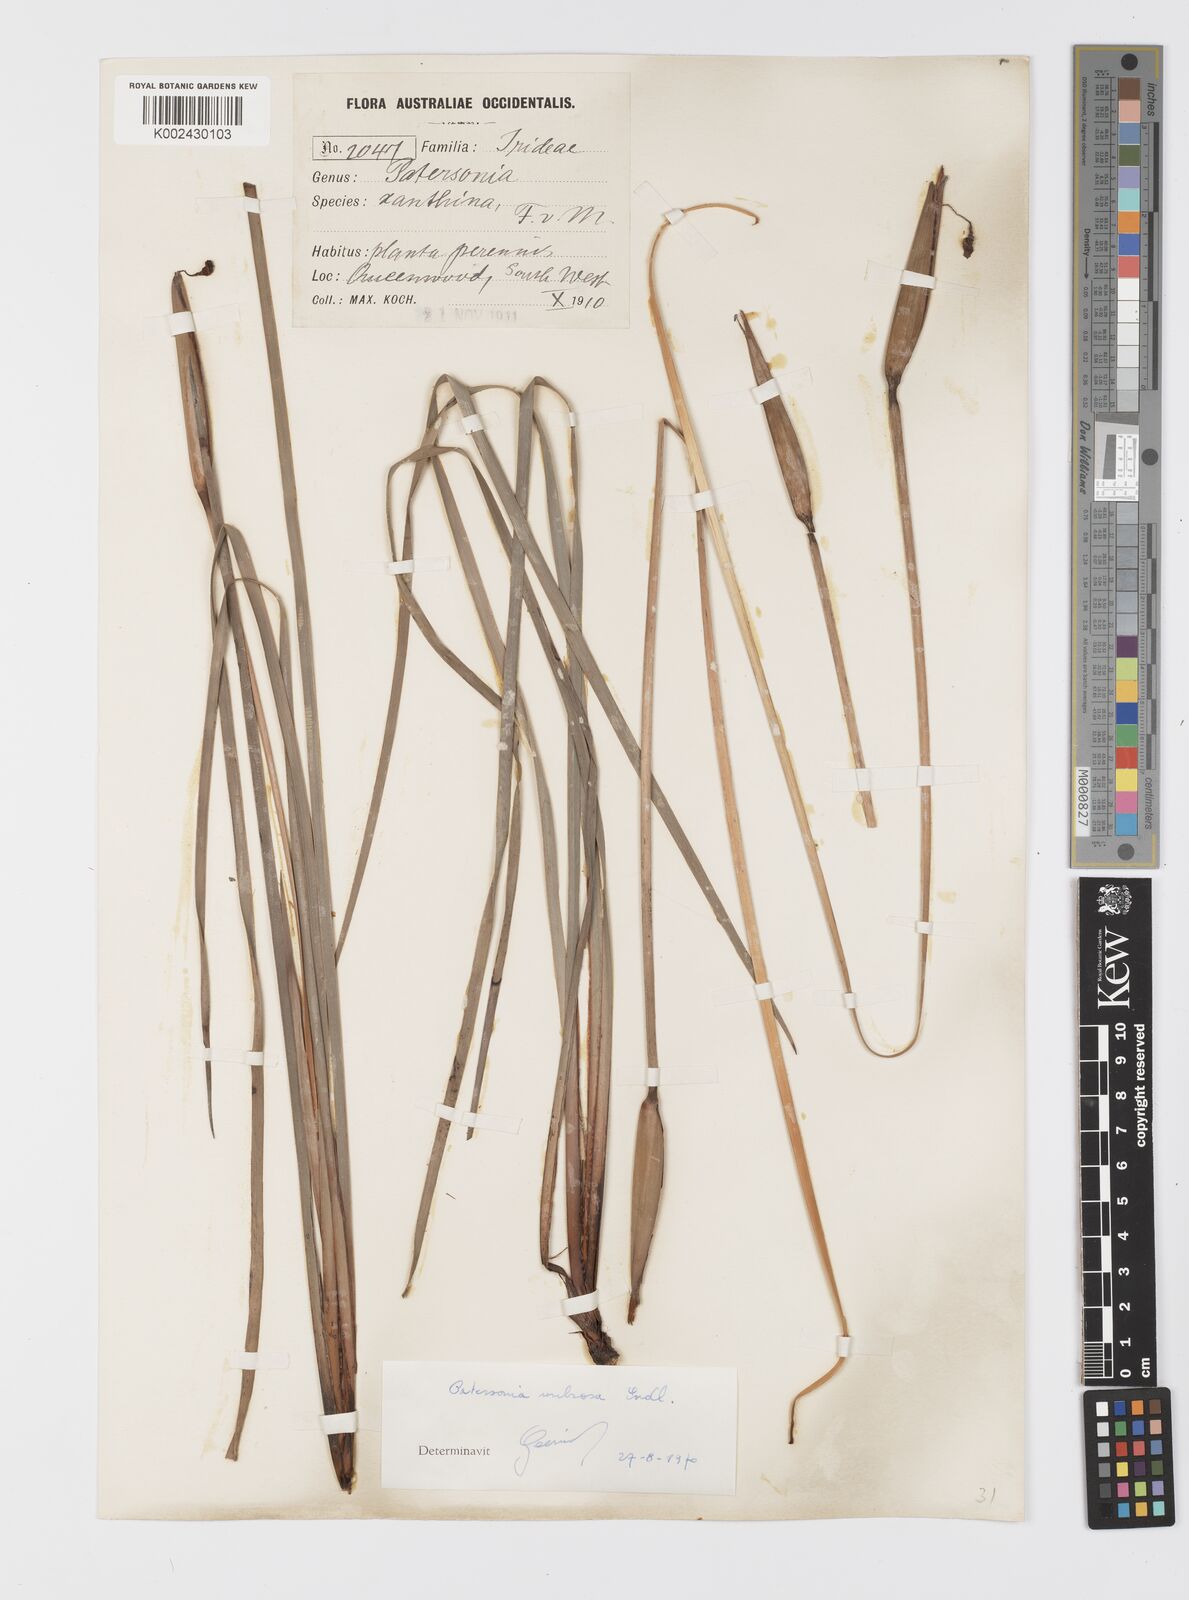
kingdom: Plantae
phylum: Tracheophyta
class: Liliopsida
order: Asparagales
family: Iridaceae
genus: Patersonia
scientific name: Patersonia umbrosa
